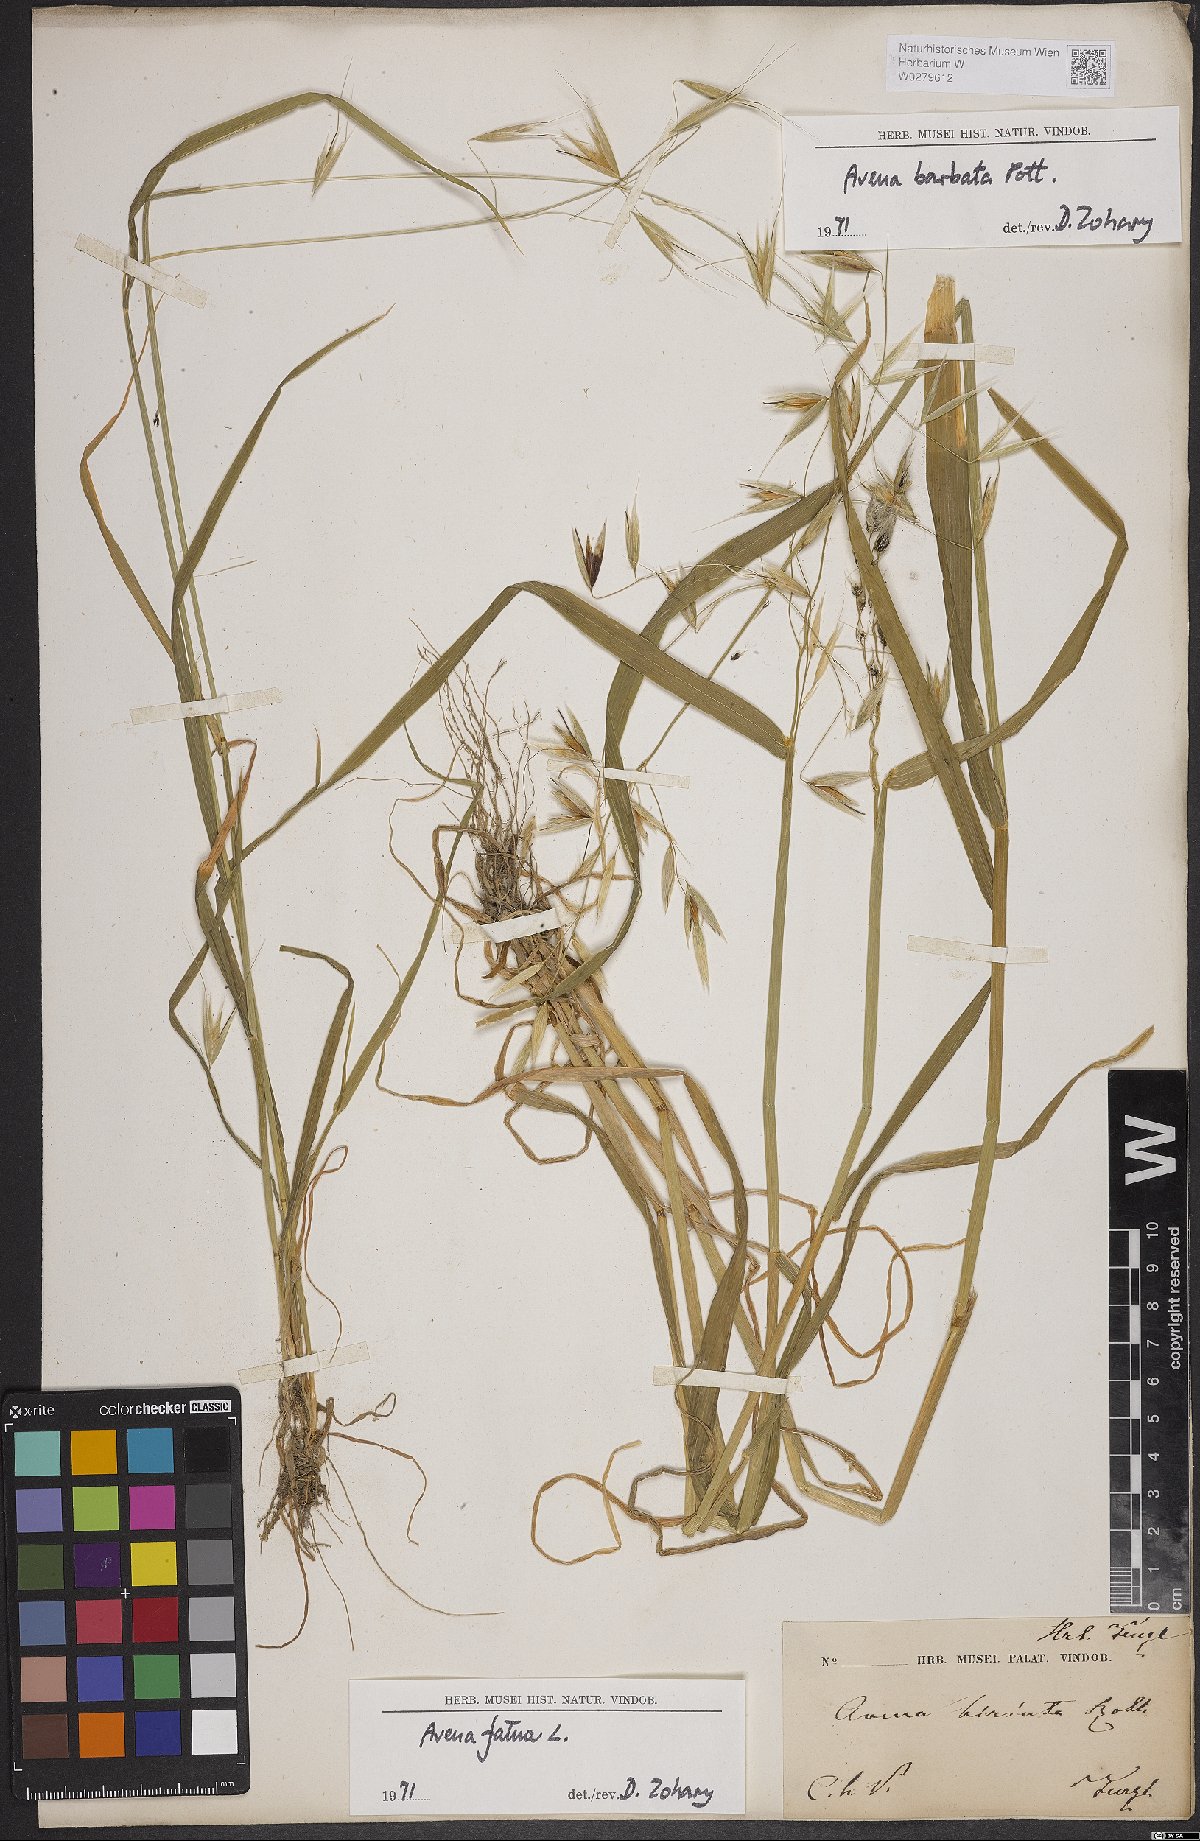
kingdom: Plantae
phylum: Tracheophyta
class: Liliopsida
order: Poales
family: Poaceae
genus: Avena
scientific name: Avena barbata
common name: Slender oat
